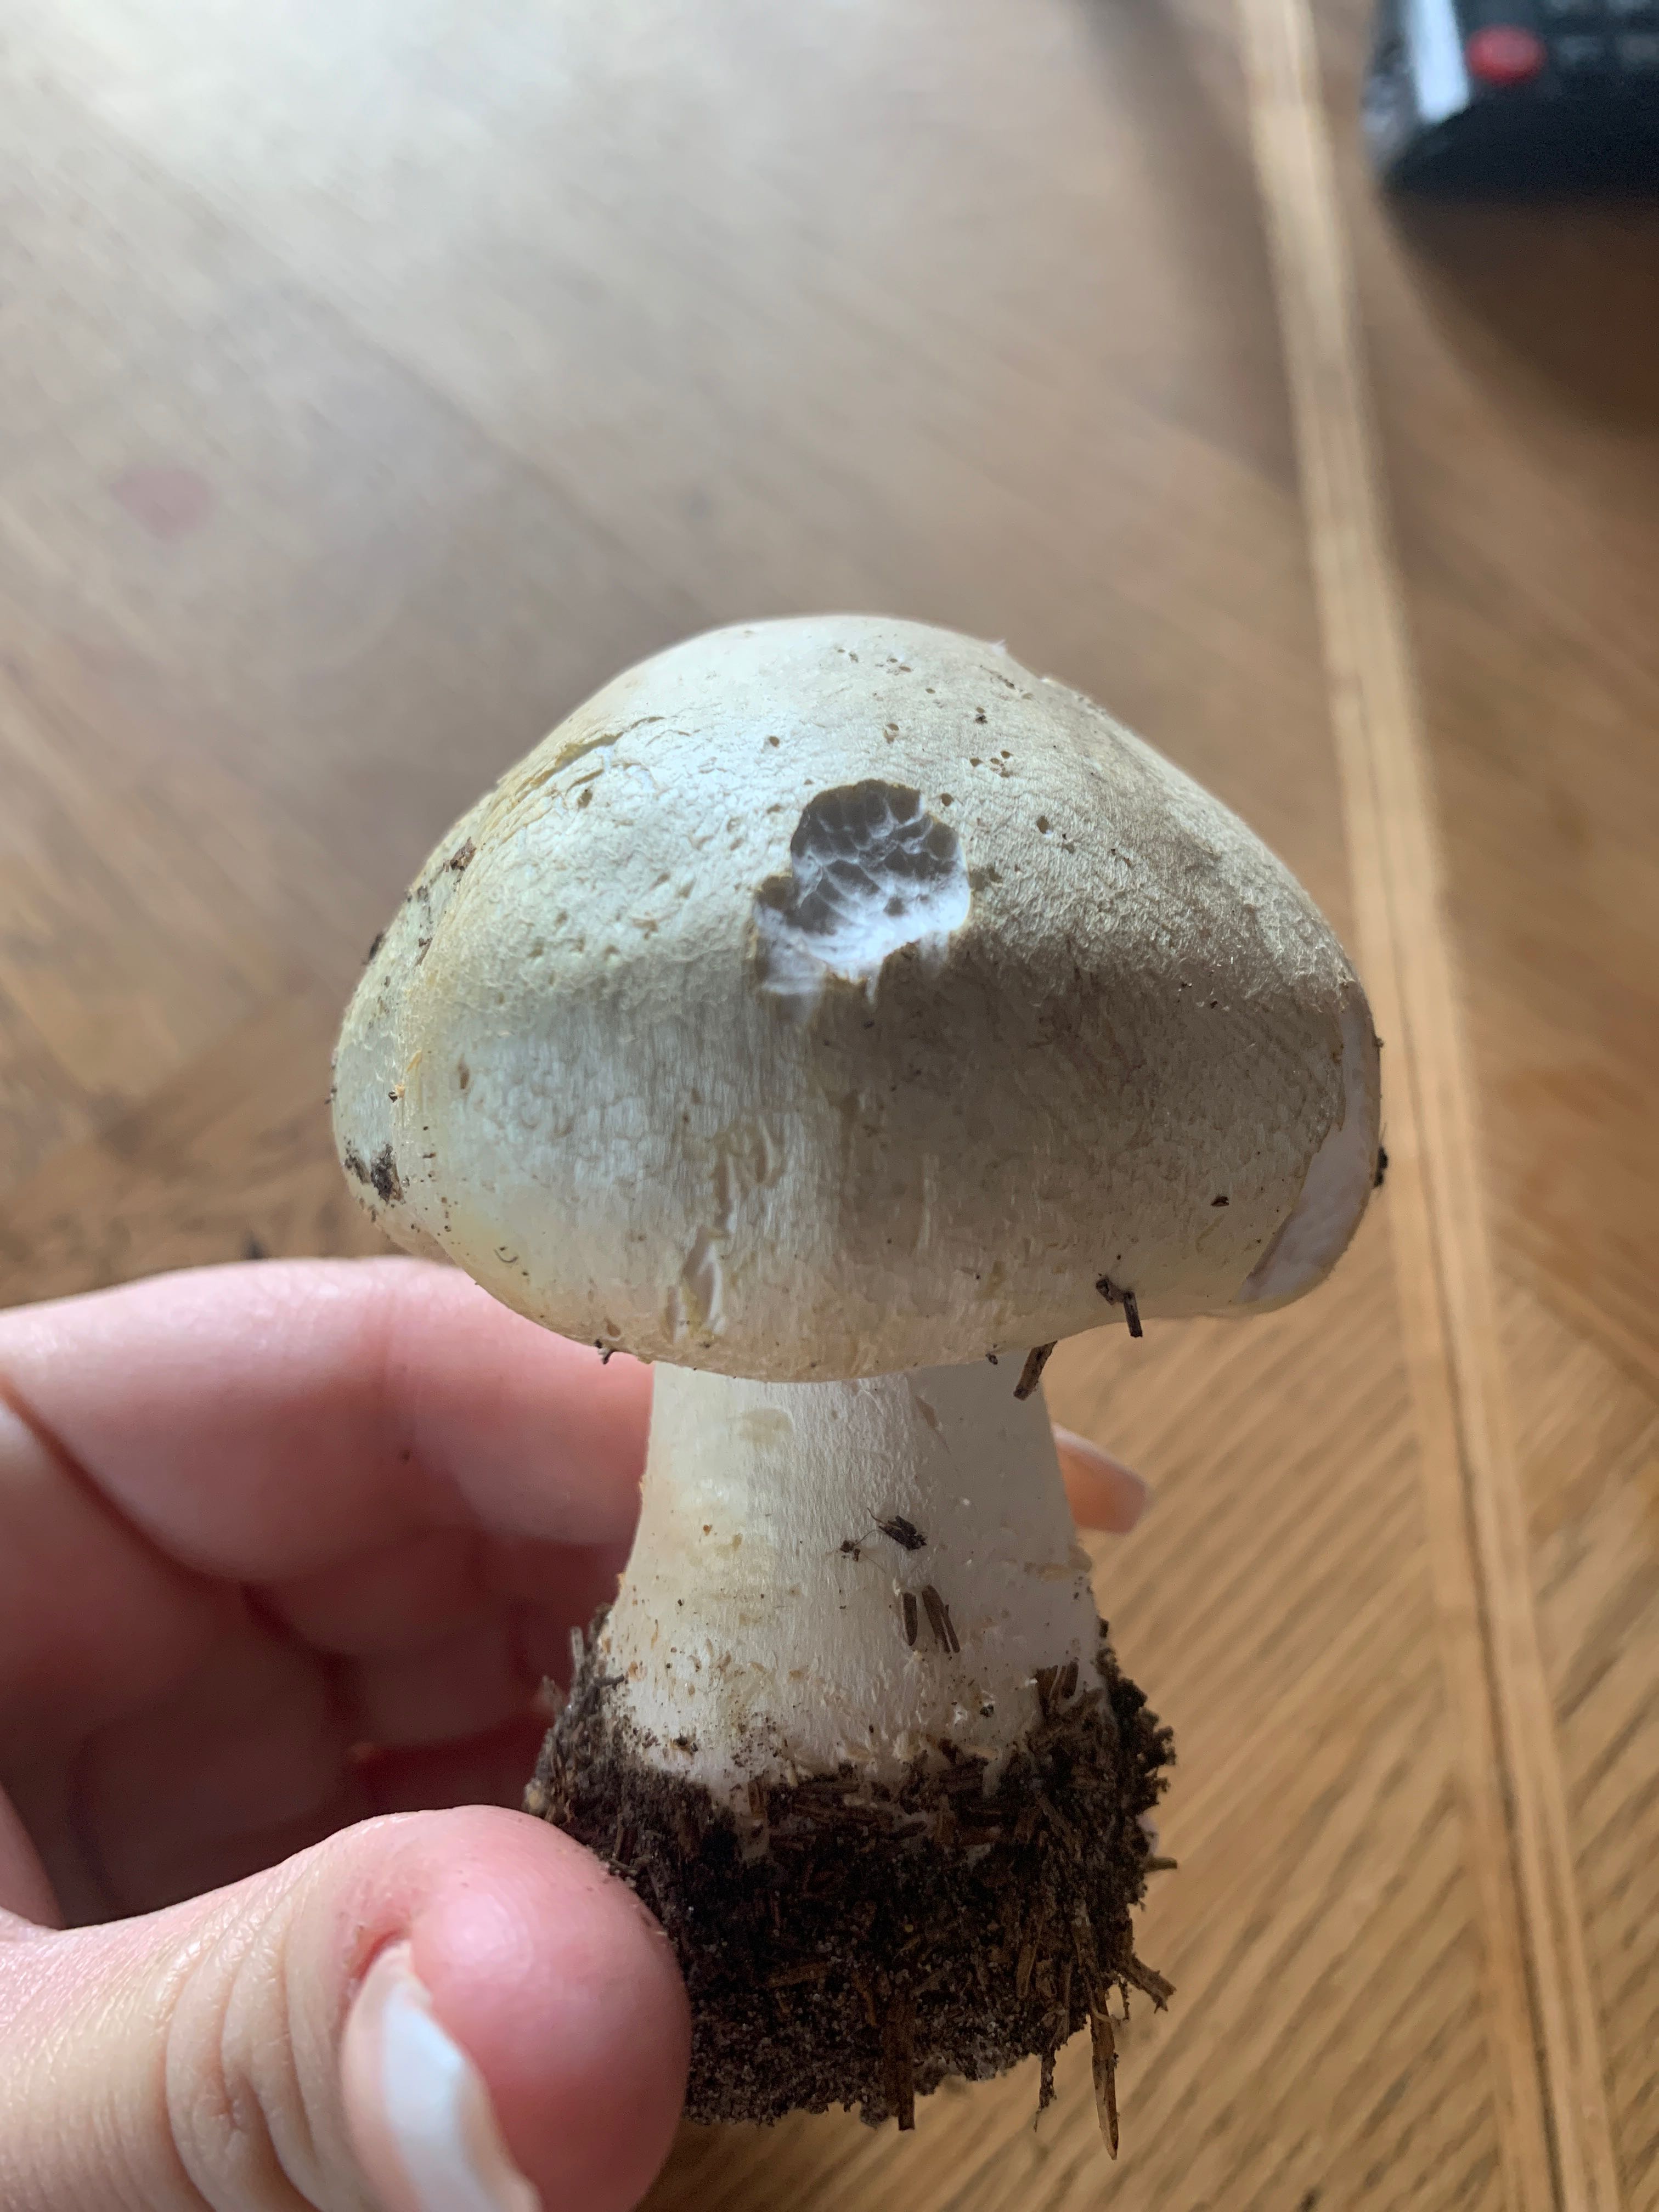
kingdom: Fungi
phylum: Basidiomycota
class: Agaricomycetes
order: Agaricales
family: Agaricaceae
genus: Agaricus
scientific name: Agaricus
